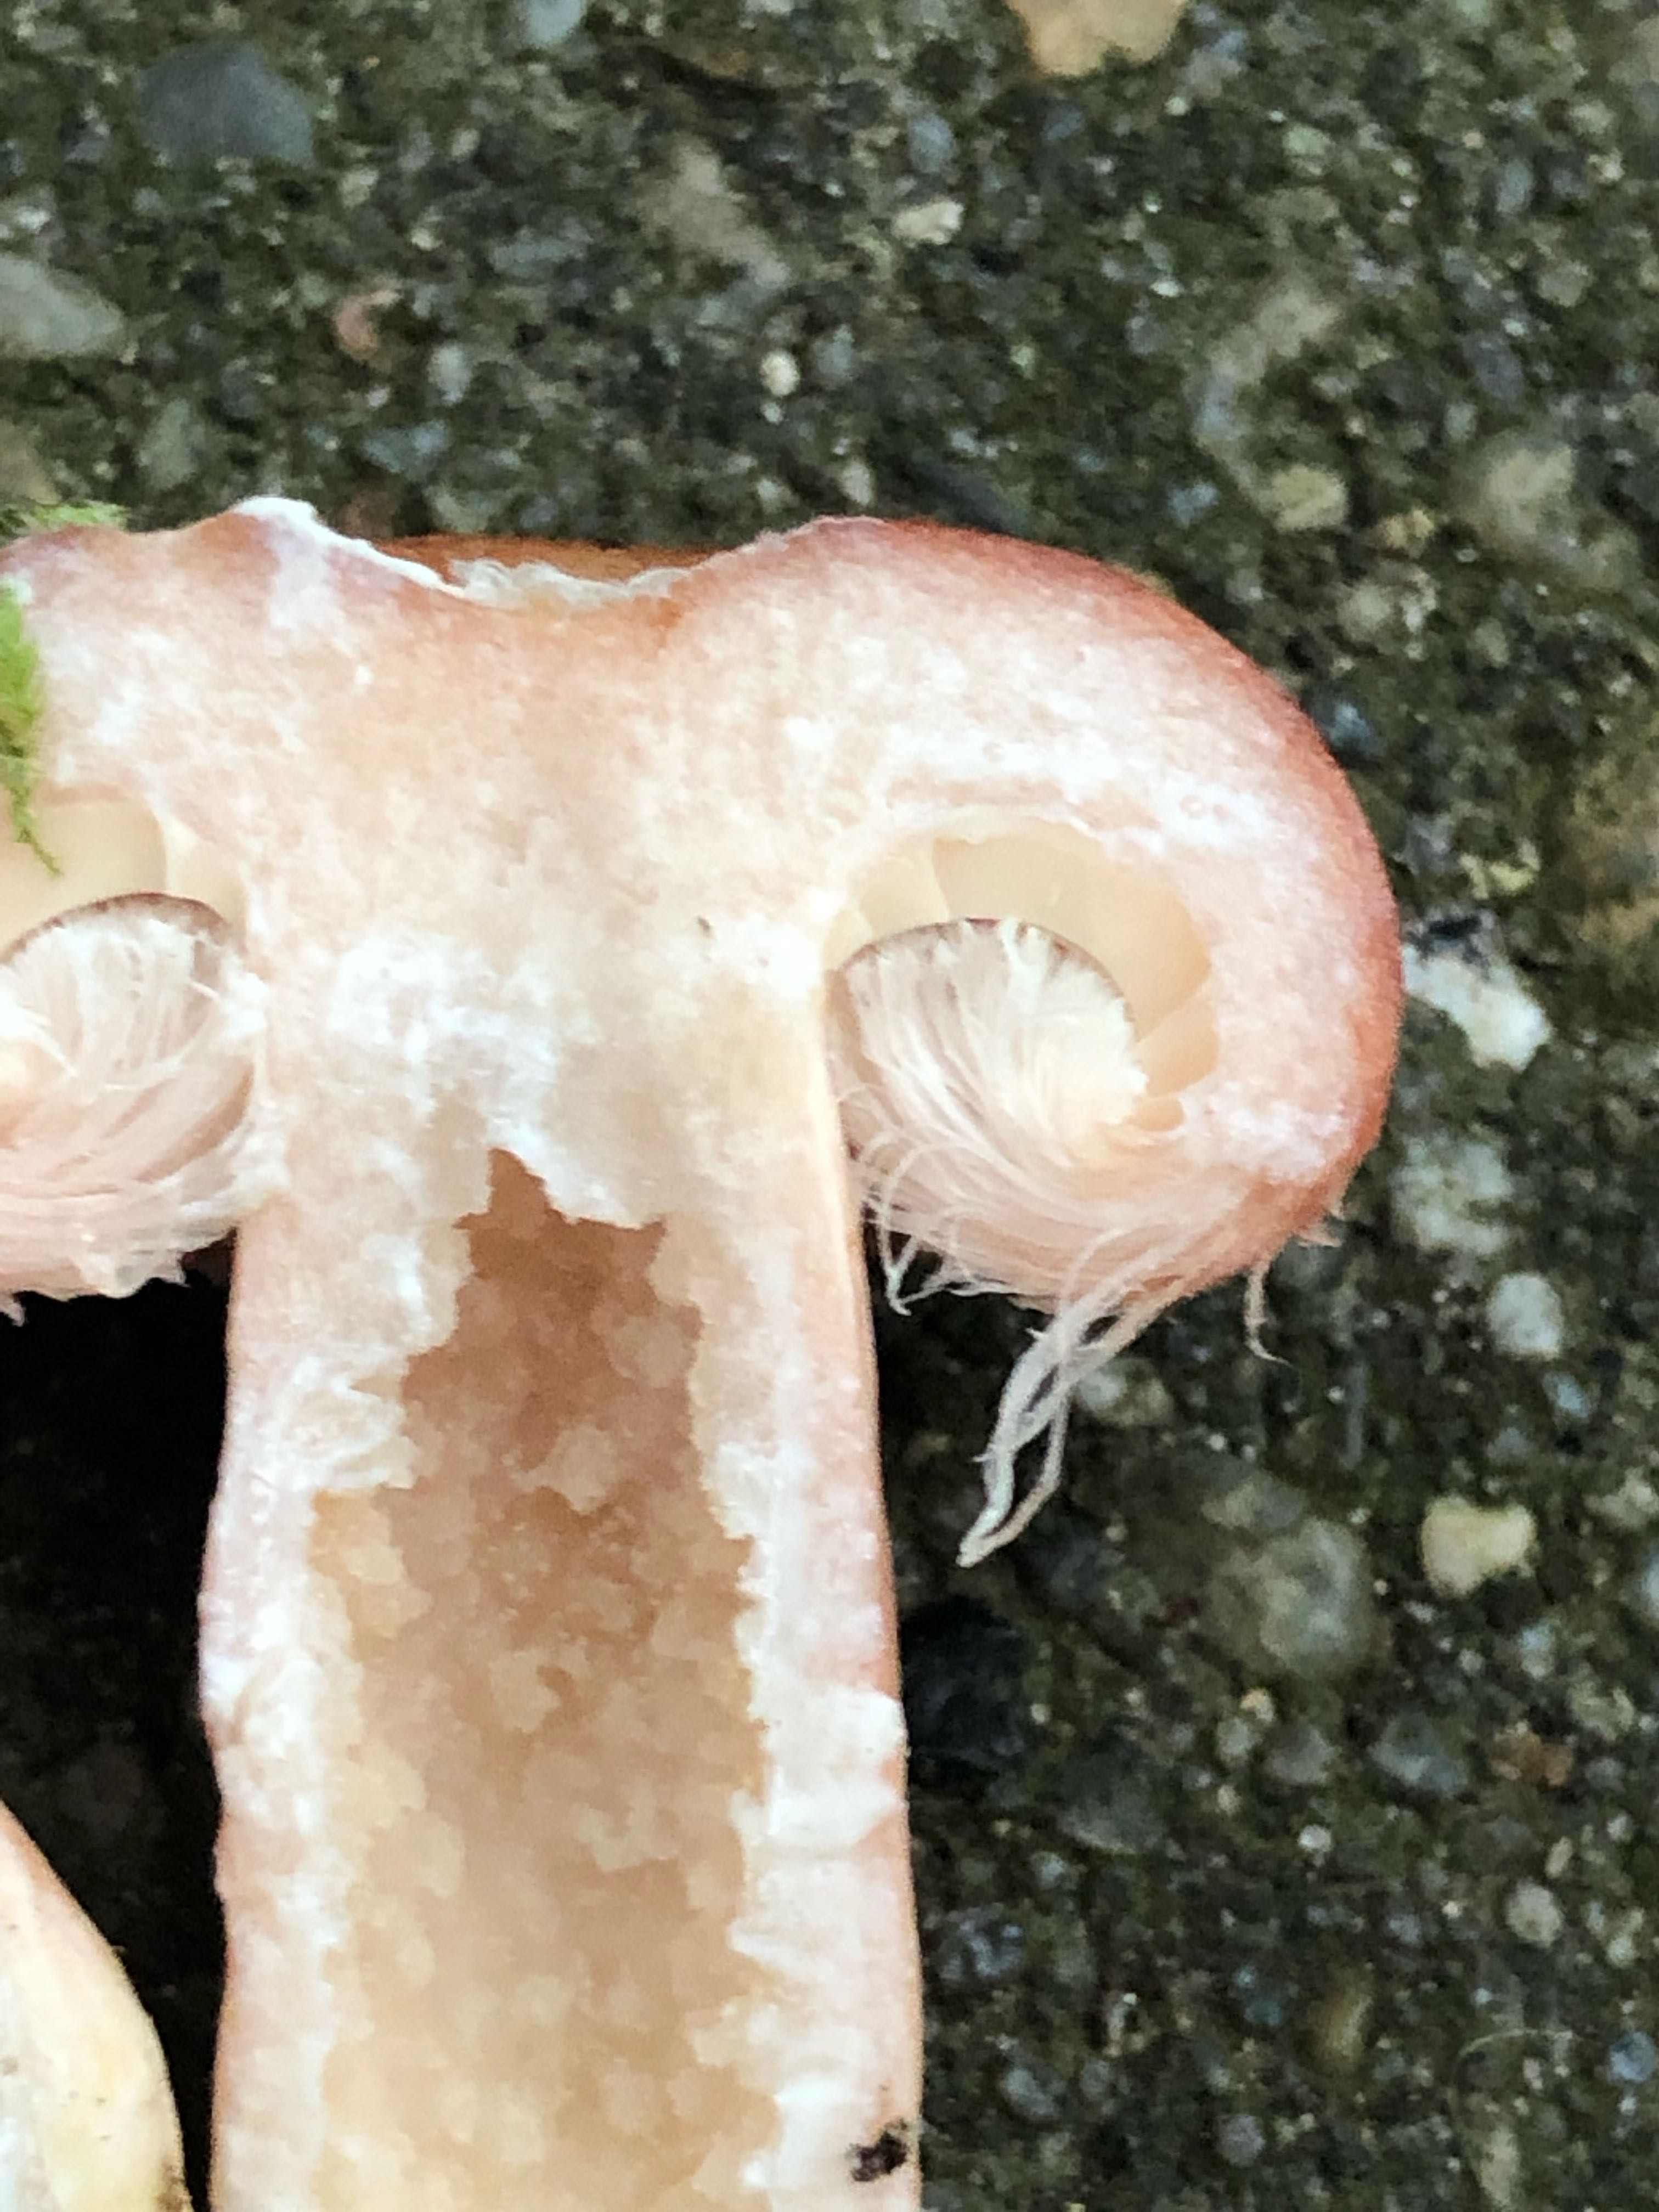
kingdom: Fungi
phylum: Basidiomycota
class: Agaricomycetes
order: Russulales
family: Russulaceae
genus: Lactarius
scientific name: Lactarius torminosus
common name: skægget mælkehat
